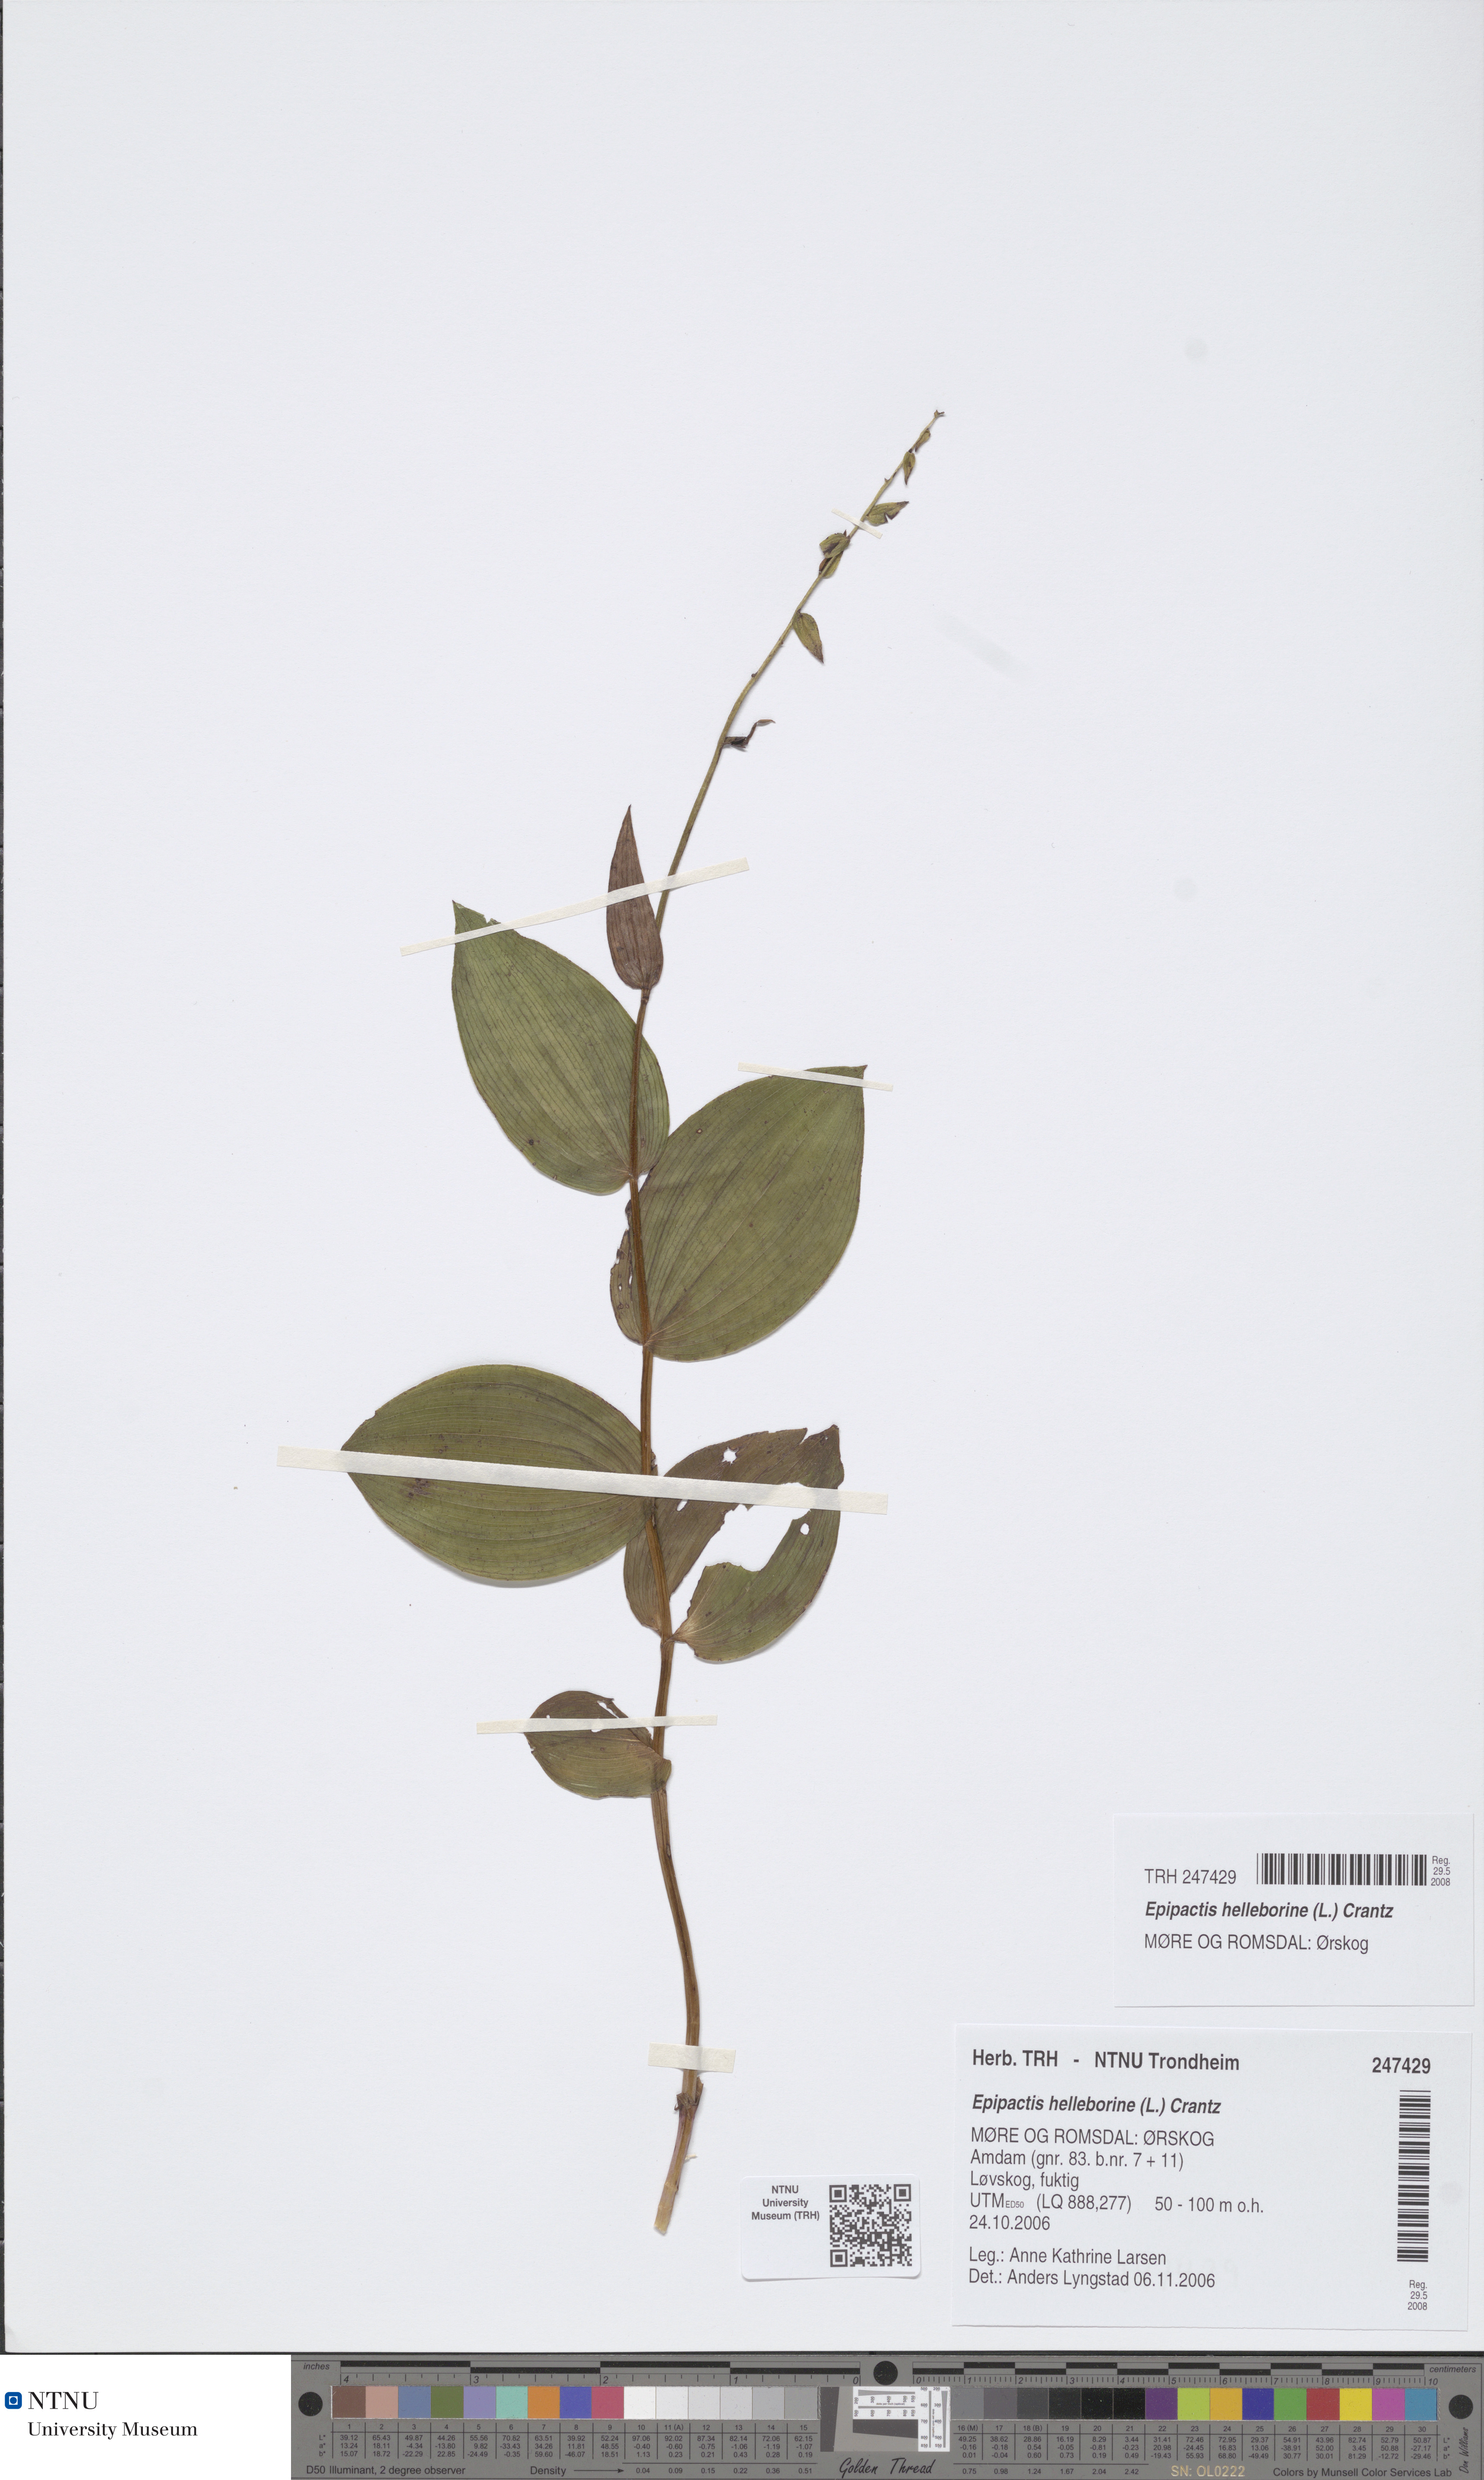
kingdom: Plantae
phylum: Tracheophyta
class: Liliopsida
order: Asparagales
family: Orchidaceae
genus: Epipactis
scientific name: Epipactis helleborine
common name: Broad-leaved helleborine
